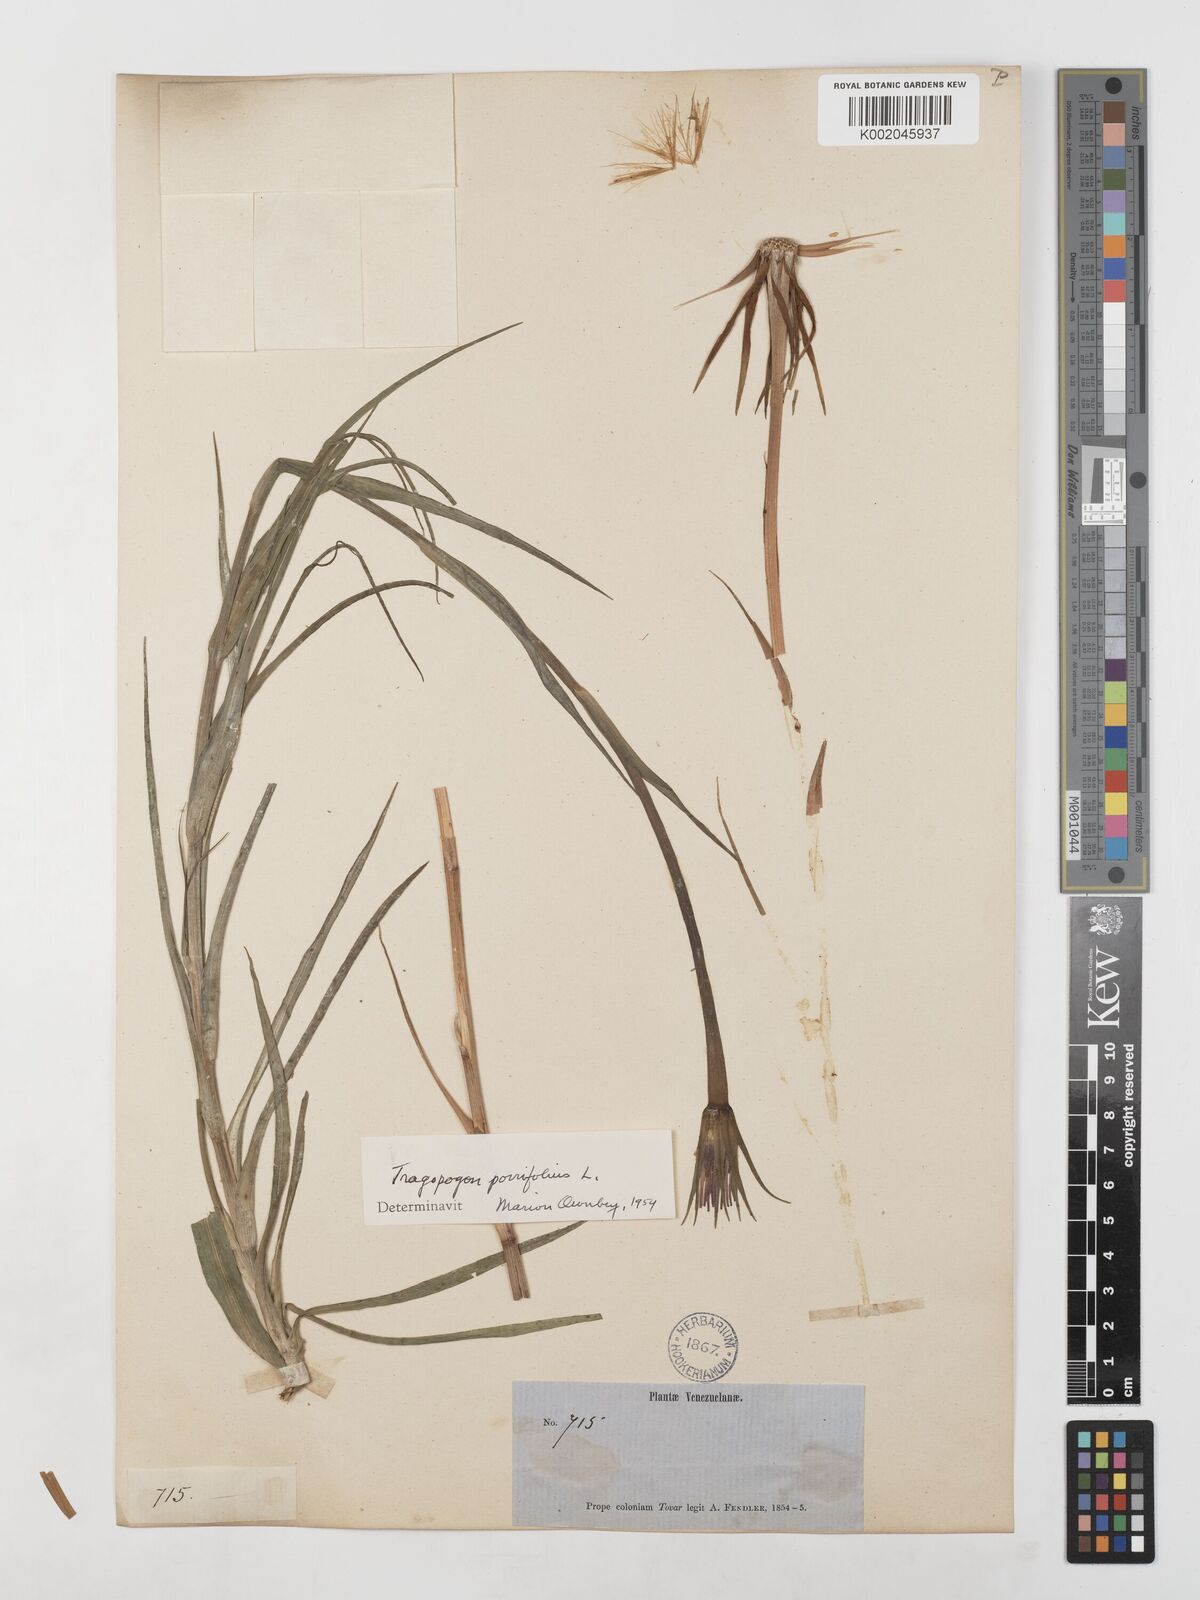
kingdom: Plantae
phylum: Tracheophyta
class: Magnoliopsida
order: Asterales
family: Asteraceae
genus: Tragopogon
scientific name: Tragopogon porrifolius
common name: Salsify
